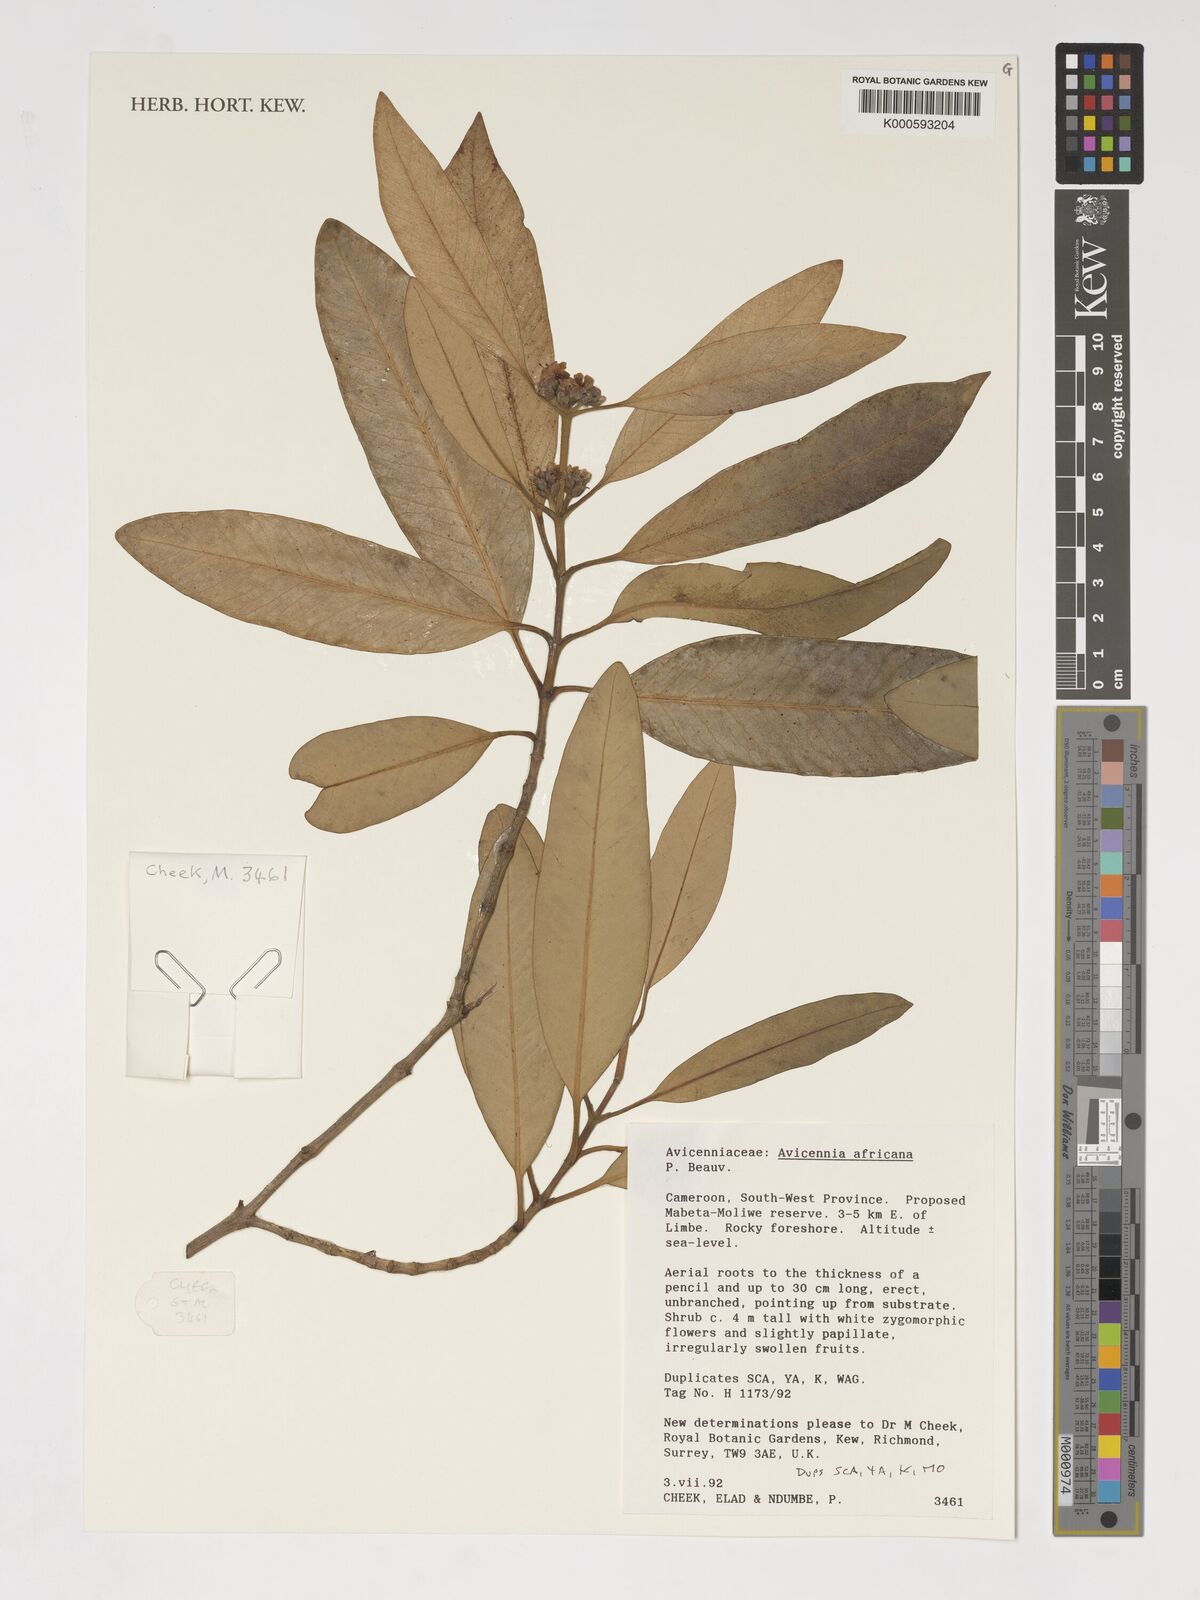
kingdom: Plantae
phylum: Tracheophyta
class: Magnoliopsida
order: Lamiales
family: Acanthaceae
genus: Avicennia
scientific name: Avicennia germinans
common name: Black mangrove
